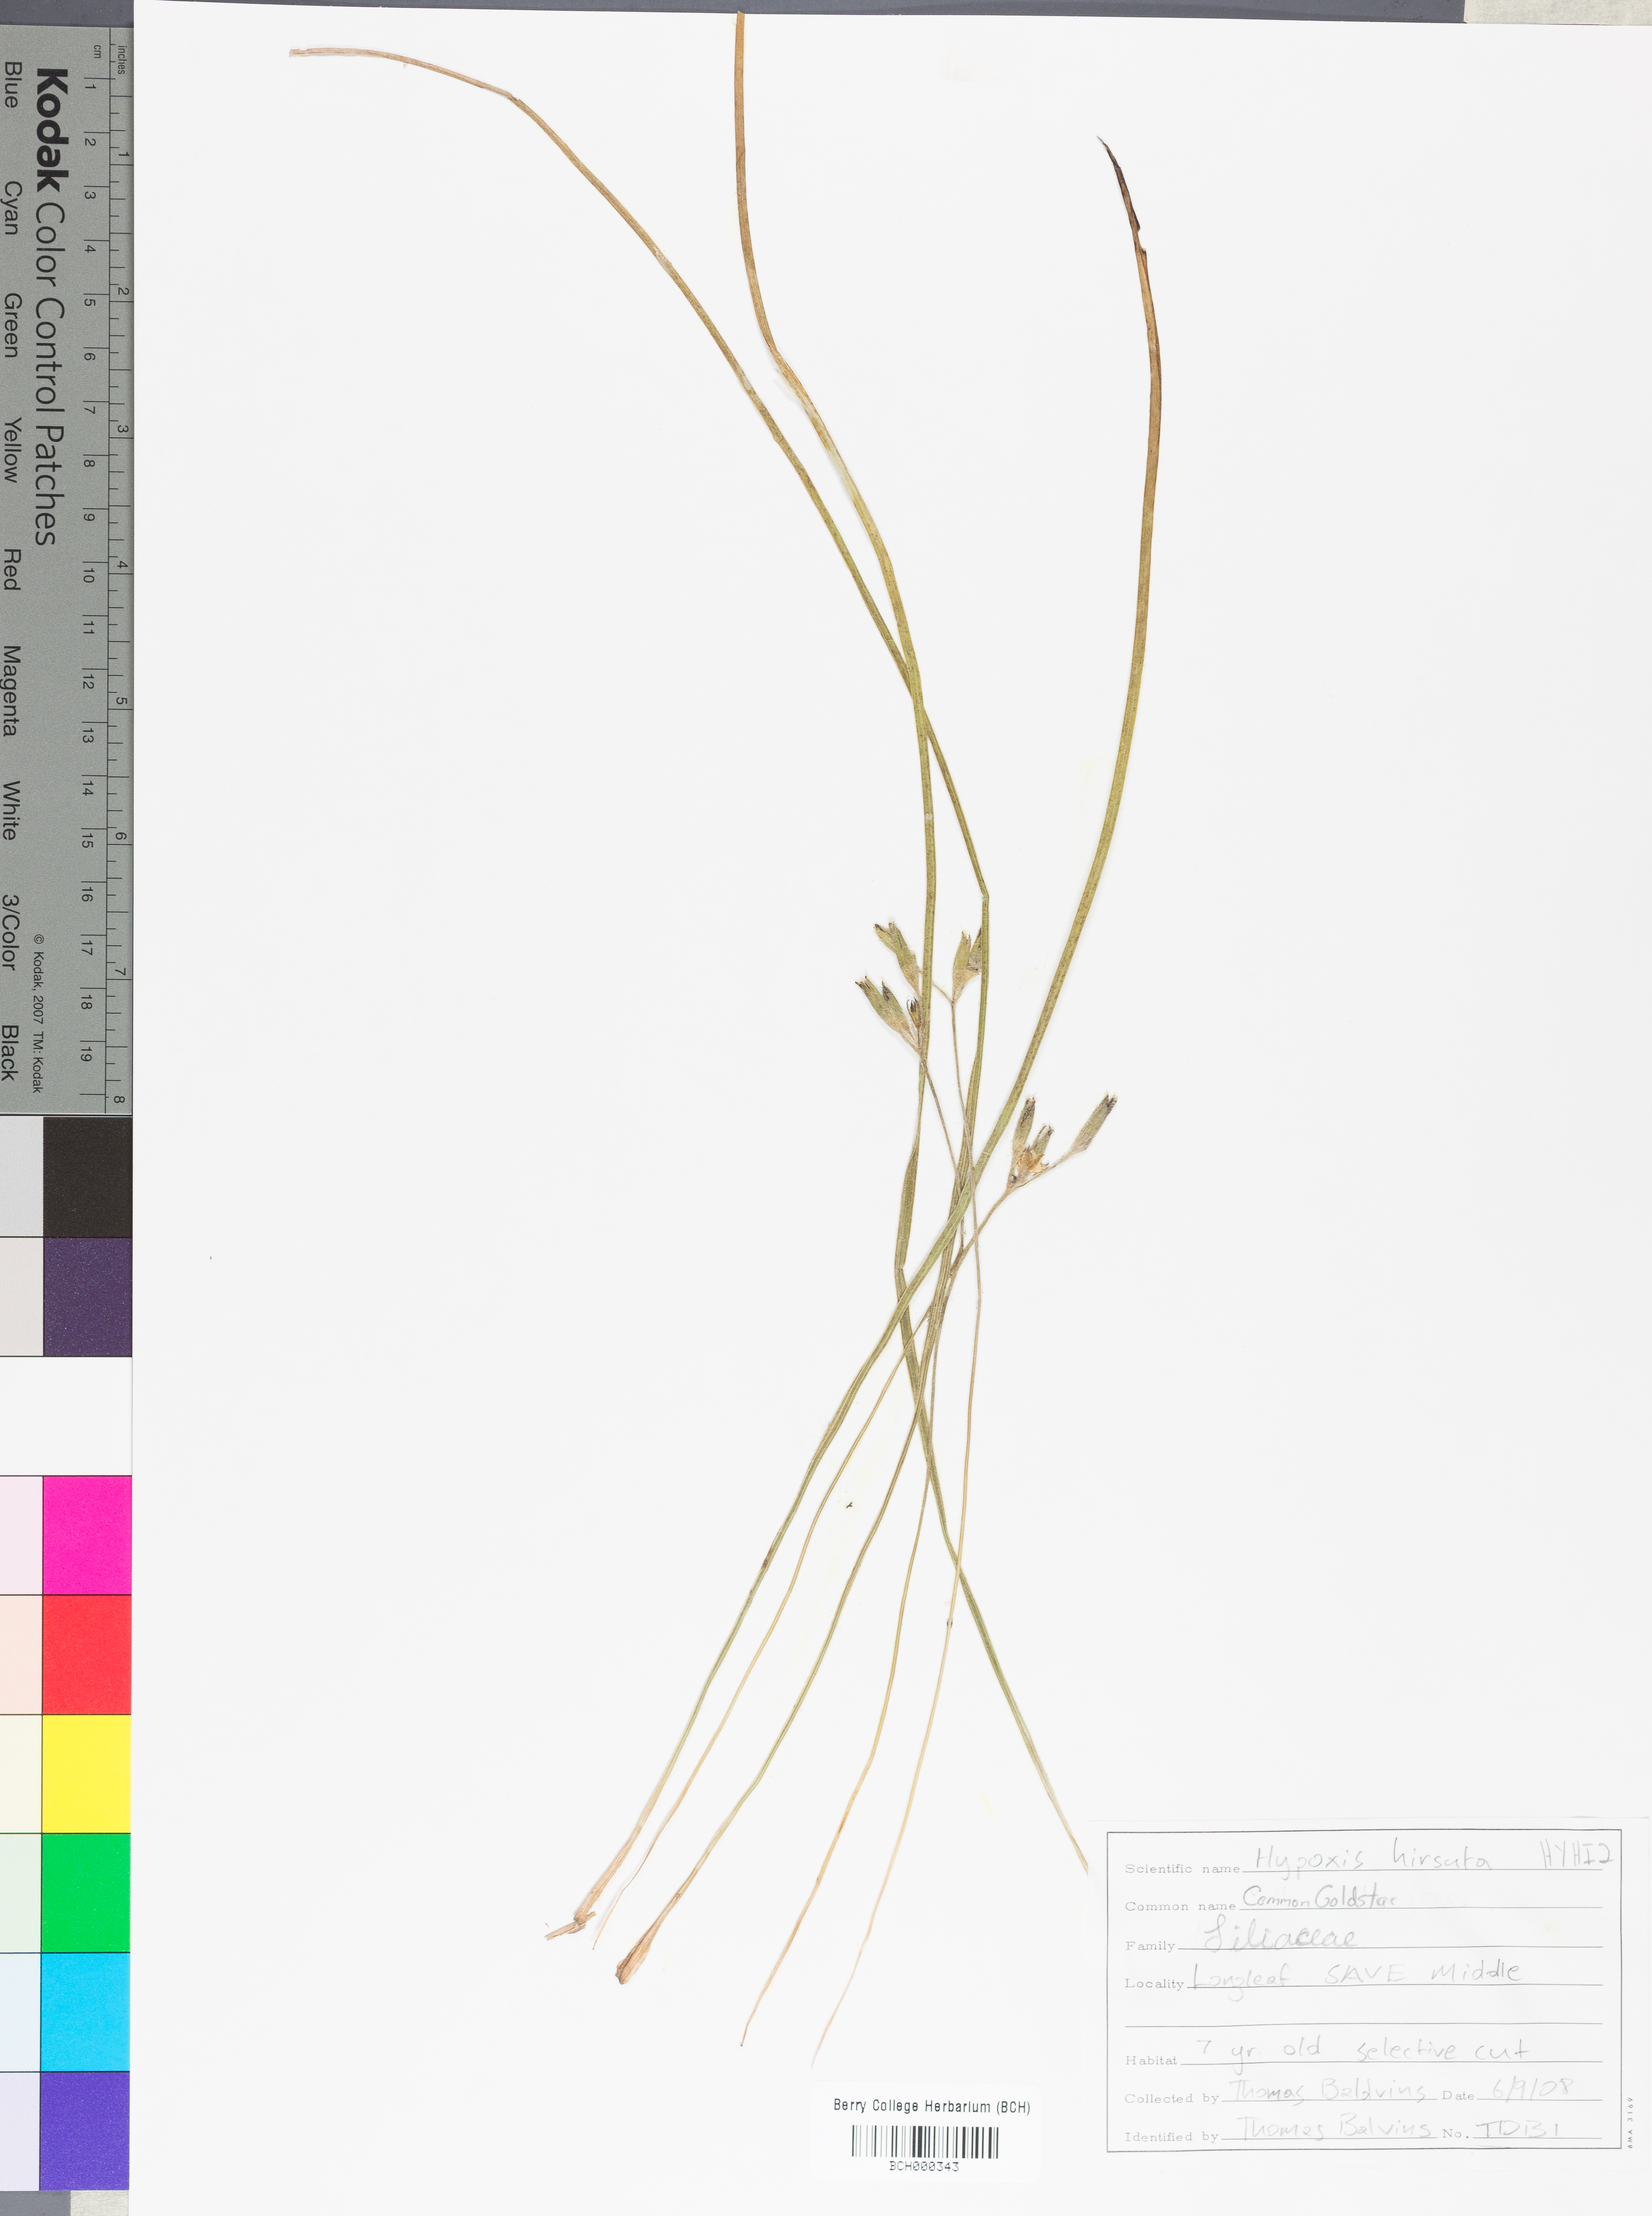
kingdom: Plantae
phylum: Tracheophyta
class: Liliopsida
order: Asparagales
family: Hypoxidaceae
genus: Hypoxis
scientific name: Hypoxis hirsuta
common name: Common goldstar
